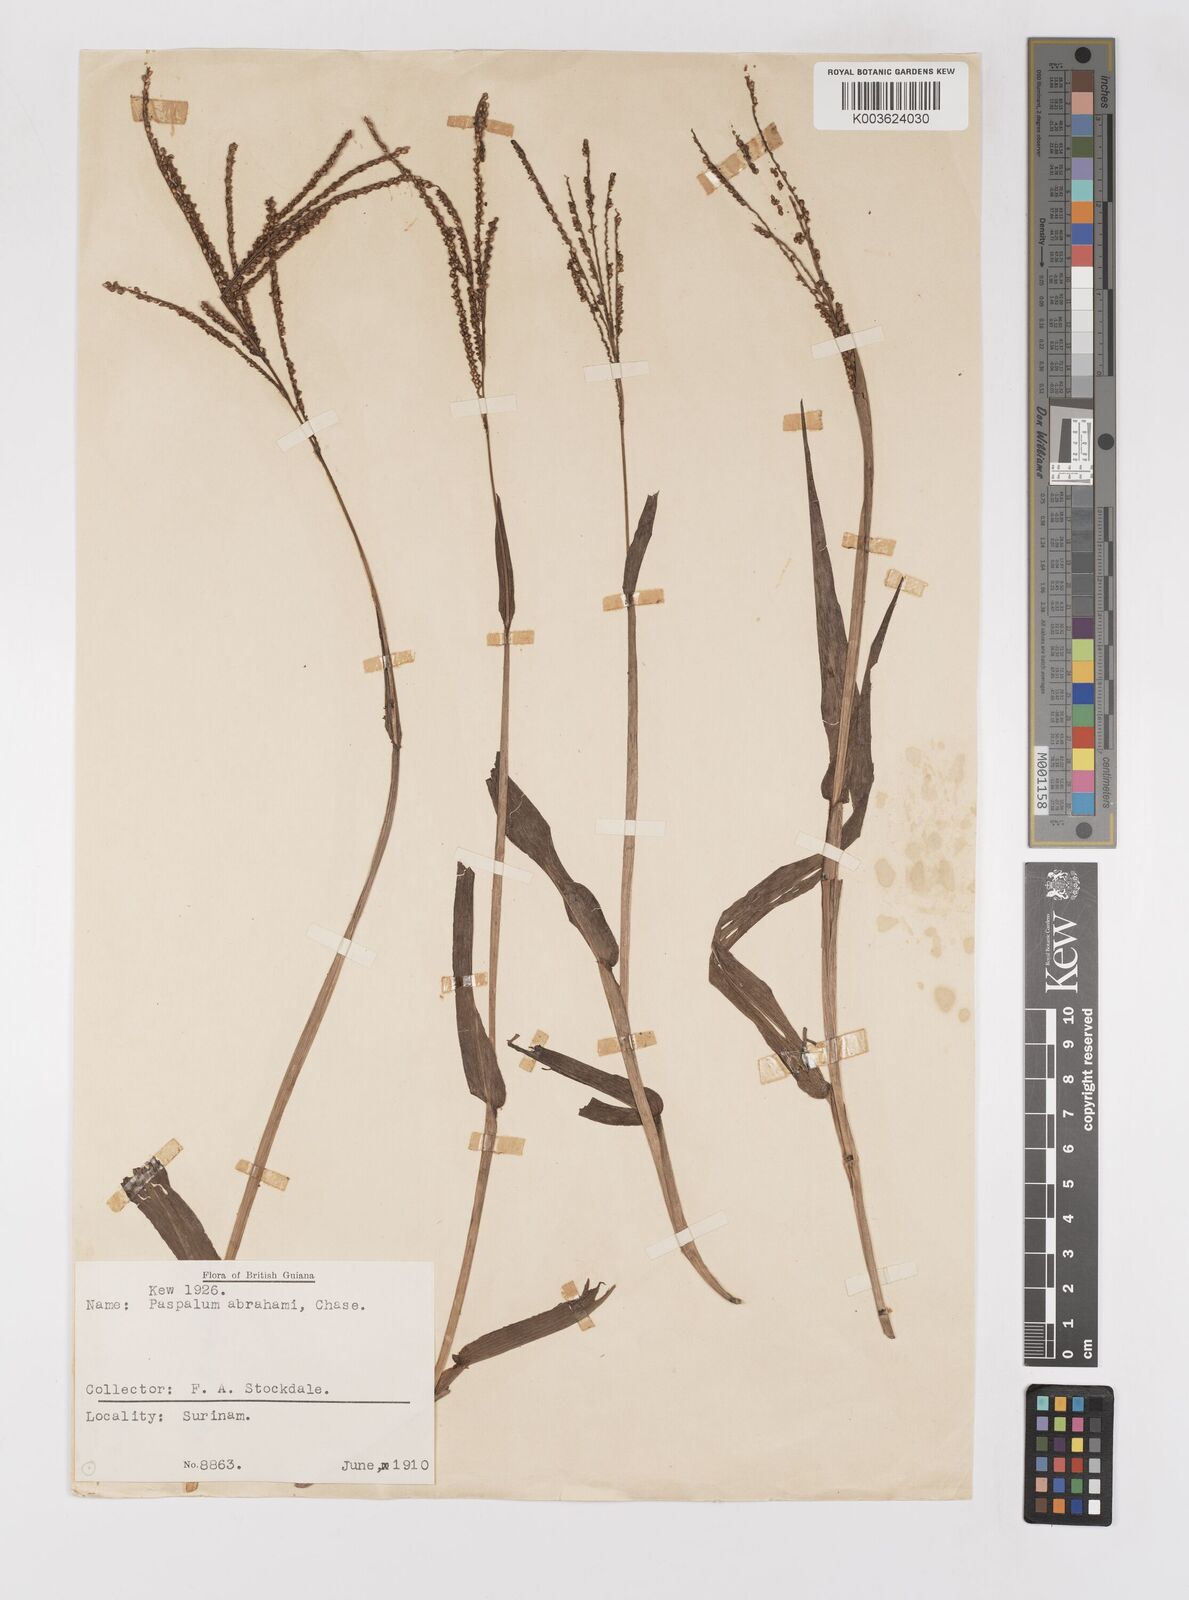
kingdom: Plantae
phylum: Tracheophyta
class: Liliopsida
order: Poales
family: Poaceae
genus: Paspalum
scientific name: Paspalum maritimum
